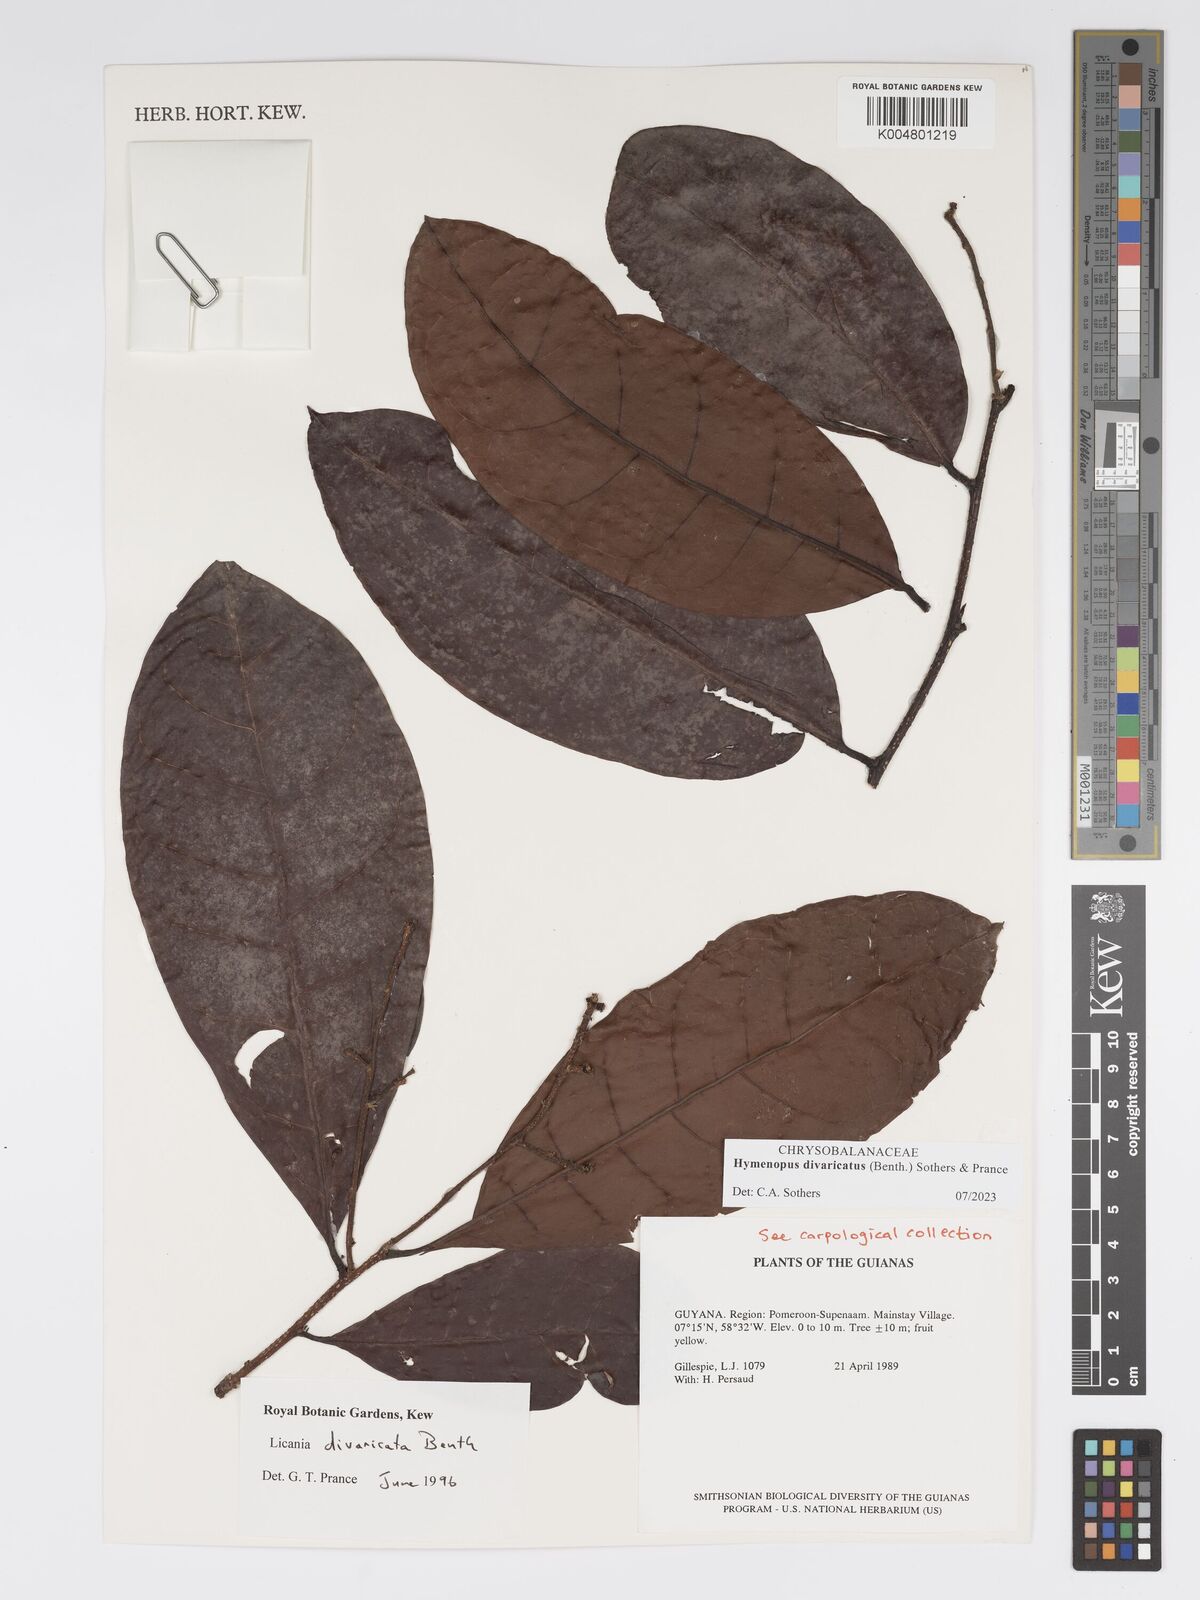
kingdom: Plantae
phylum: Tracheophyta
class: Magnoliopsida
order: Malpighiales
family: Chrysobalanaceae
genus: Hymenopus
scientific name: Hymenopus divaricatus
